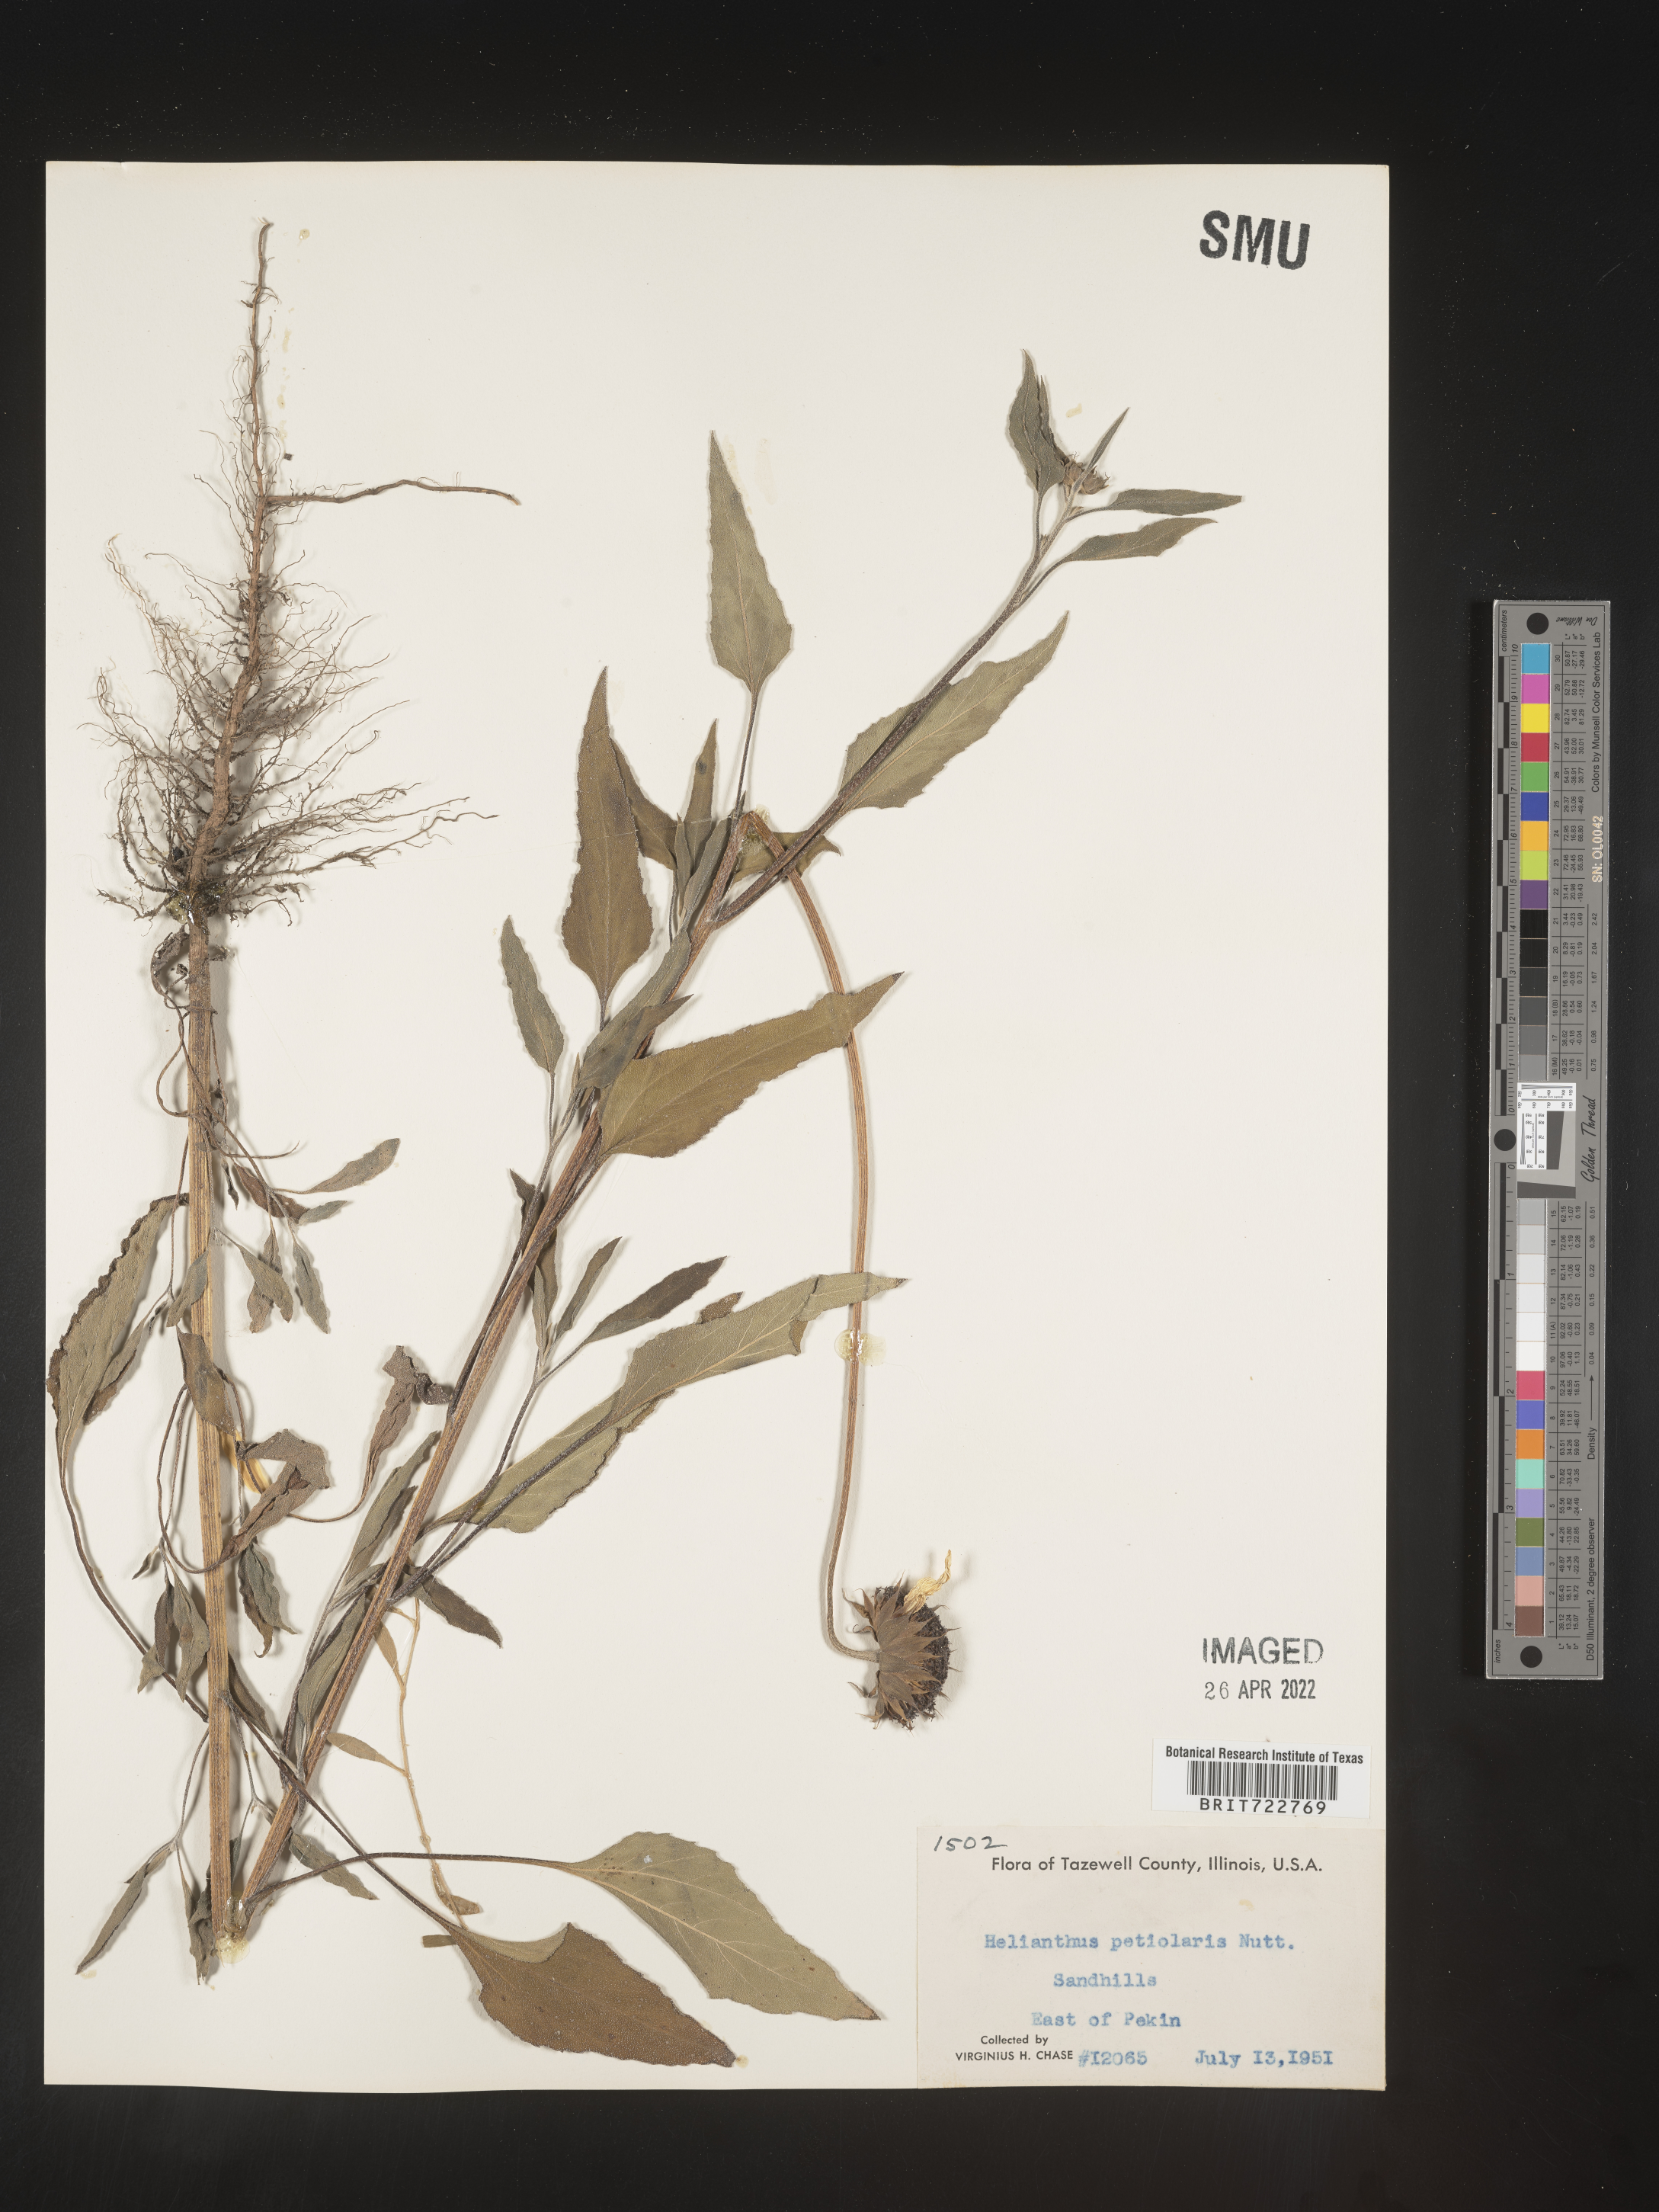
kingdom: Plantae
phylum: Tracheophyta
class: Magnoliopsida
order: Asterales
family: Asteraceae
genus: Helianthus
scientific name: Helianthus petiolaris
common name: Lesser sunflower
